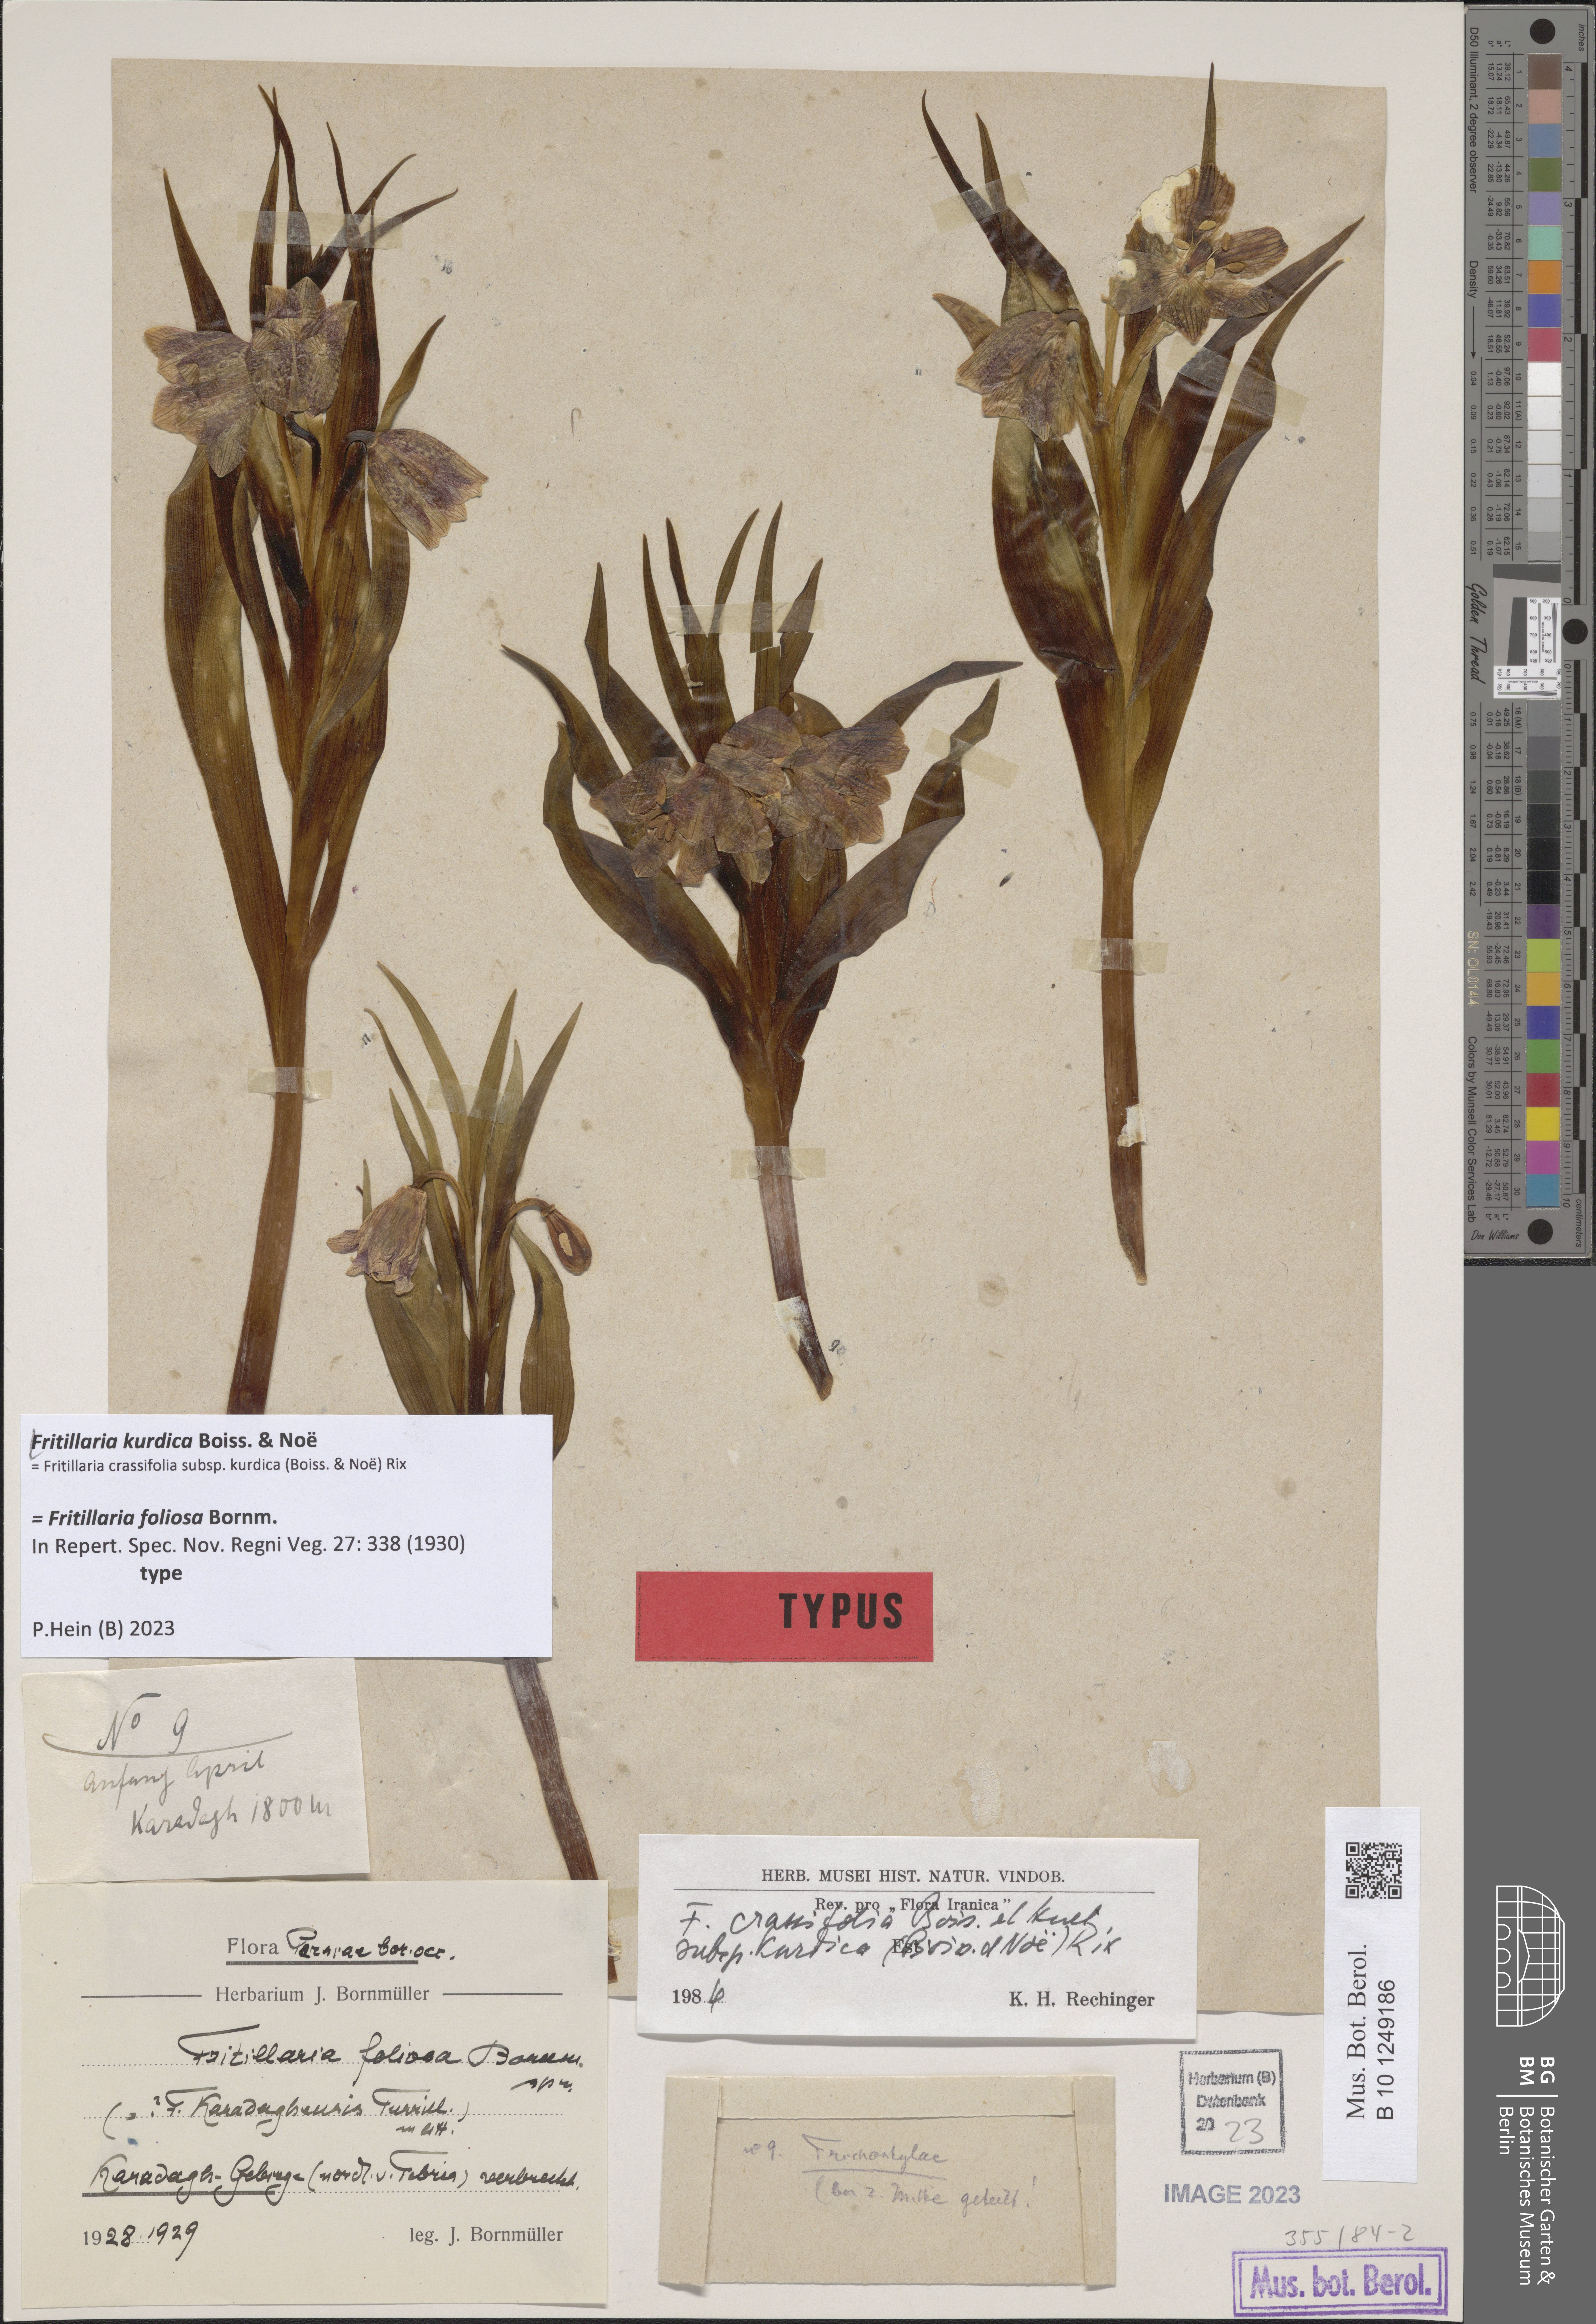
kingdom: Plantae
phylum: Tracheophyta
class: Liliopsida
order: Liliales
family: Liliaceae
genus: Fritillaria
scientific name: Fritillaria kurdica
